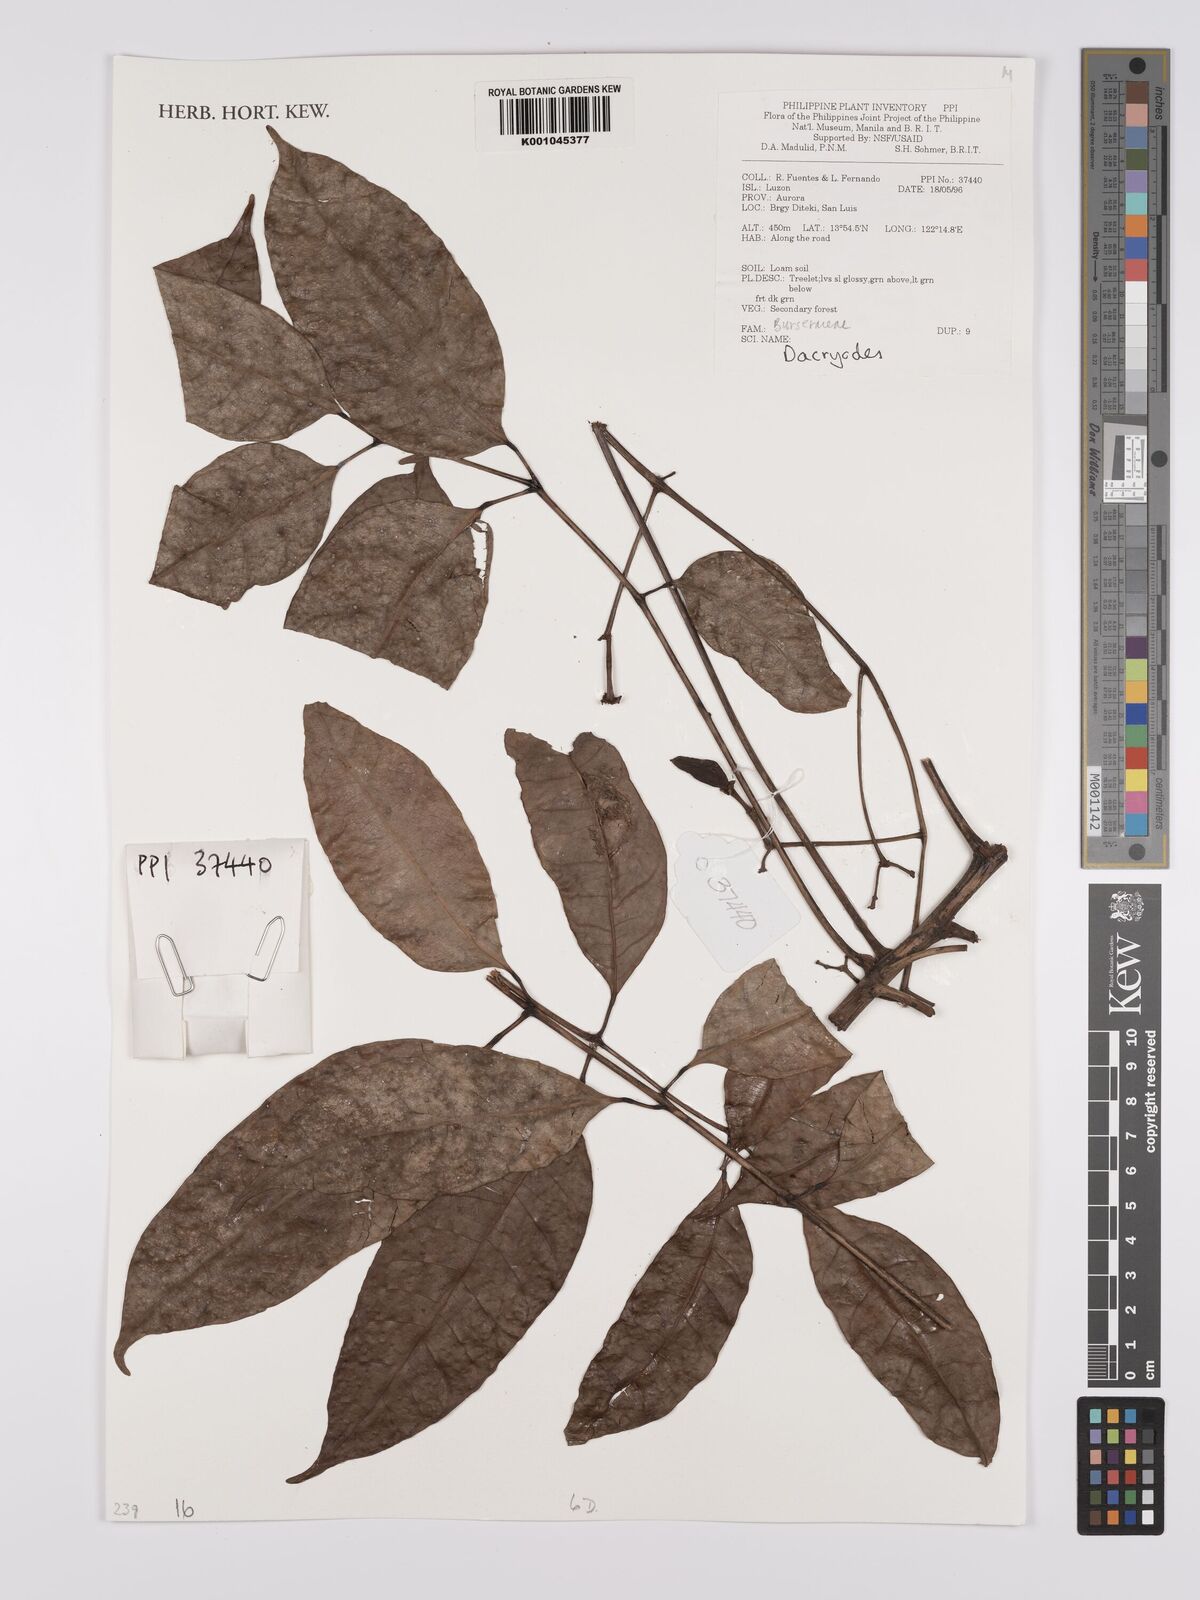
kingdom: Plantae
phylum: Tracheophyta
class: Magnoliopsida
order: Sapindales
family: Burseraceae
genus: Dacryodes
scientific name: Dacryodes
